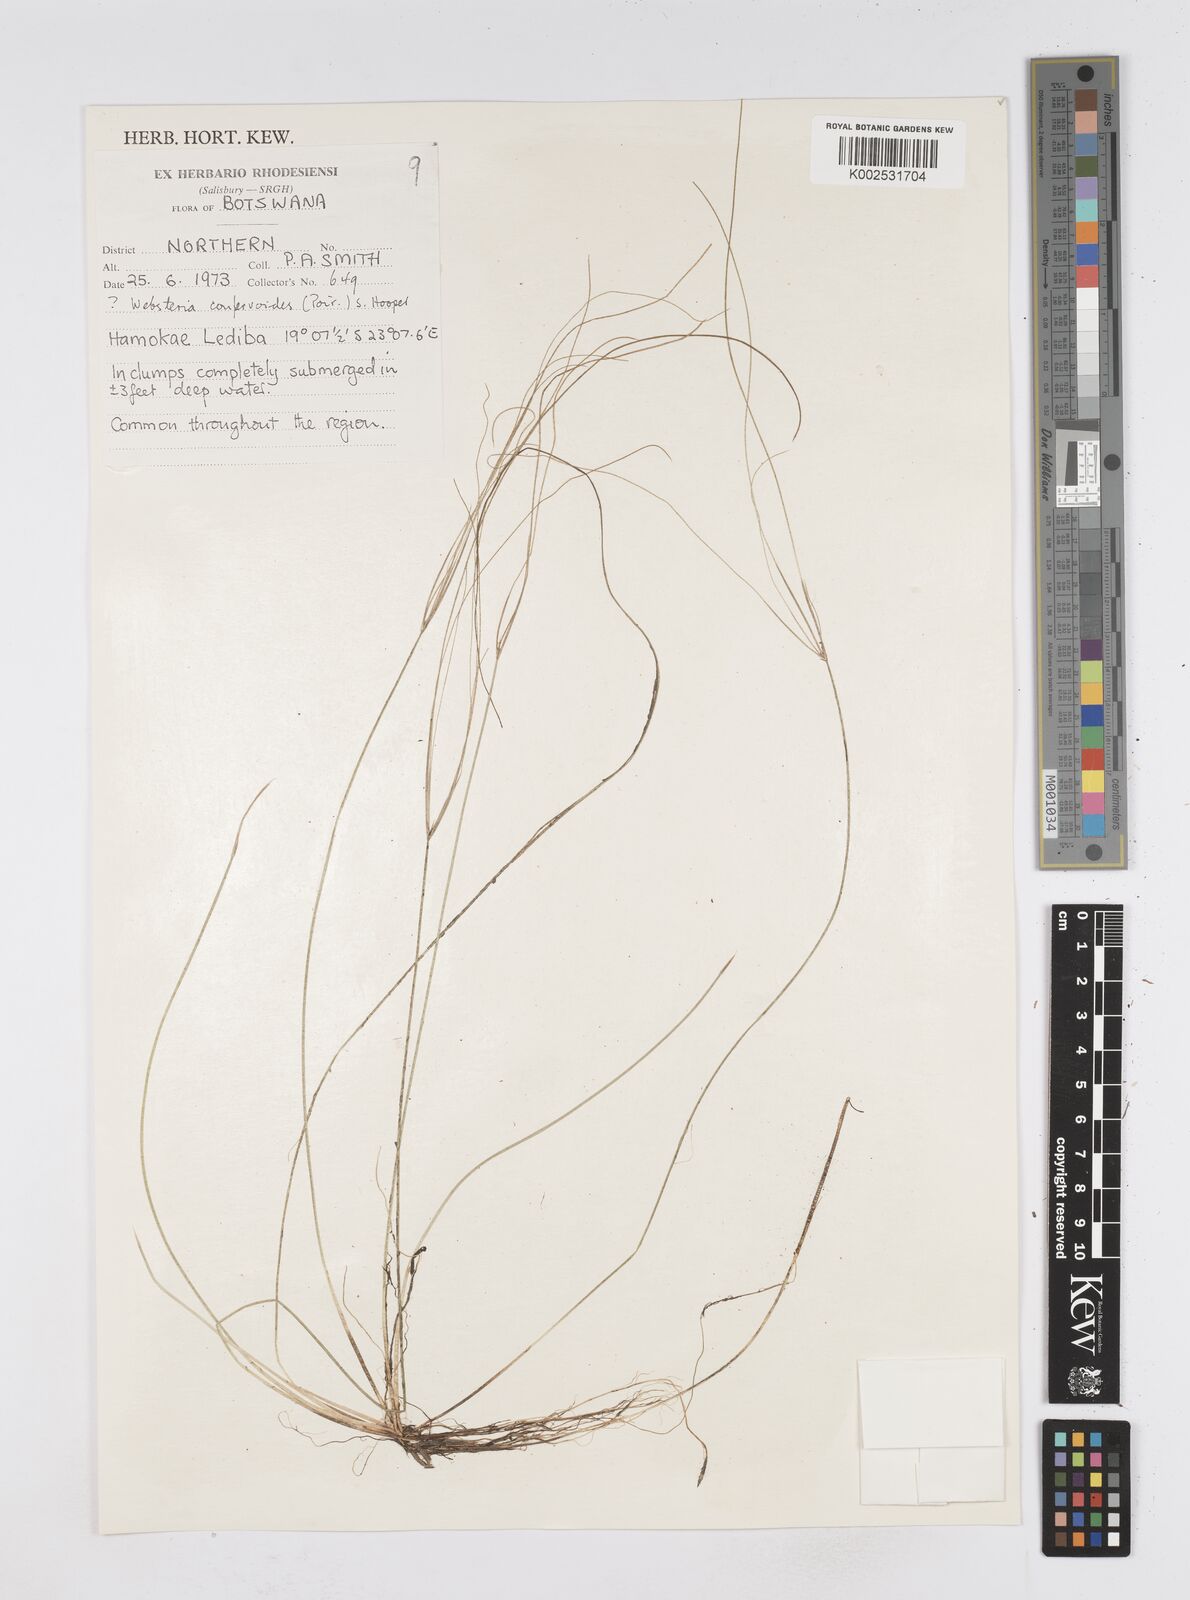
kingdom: Plantae
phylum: Tracheophyta
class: Liliopsida
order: Poales
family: Cyperaceae
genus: Eleocharis
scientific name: Eleocharis confervoides
